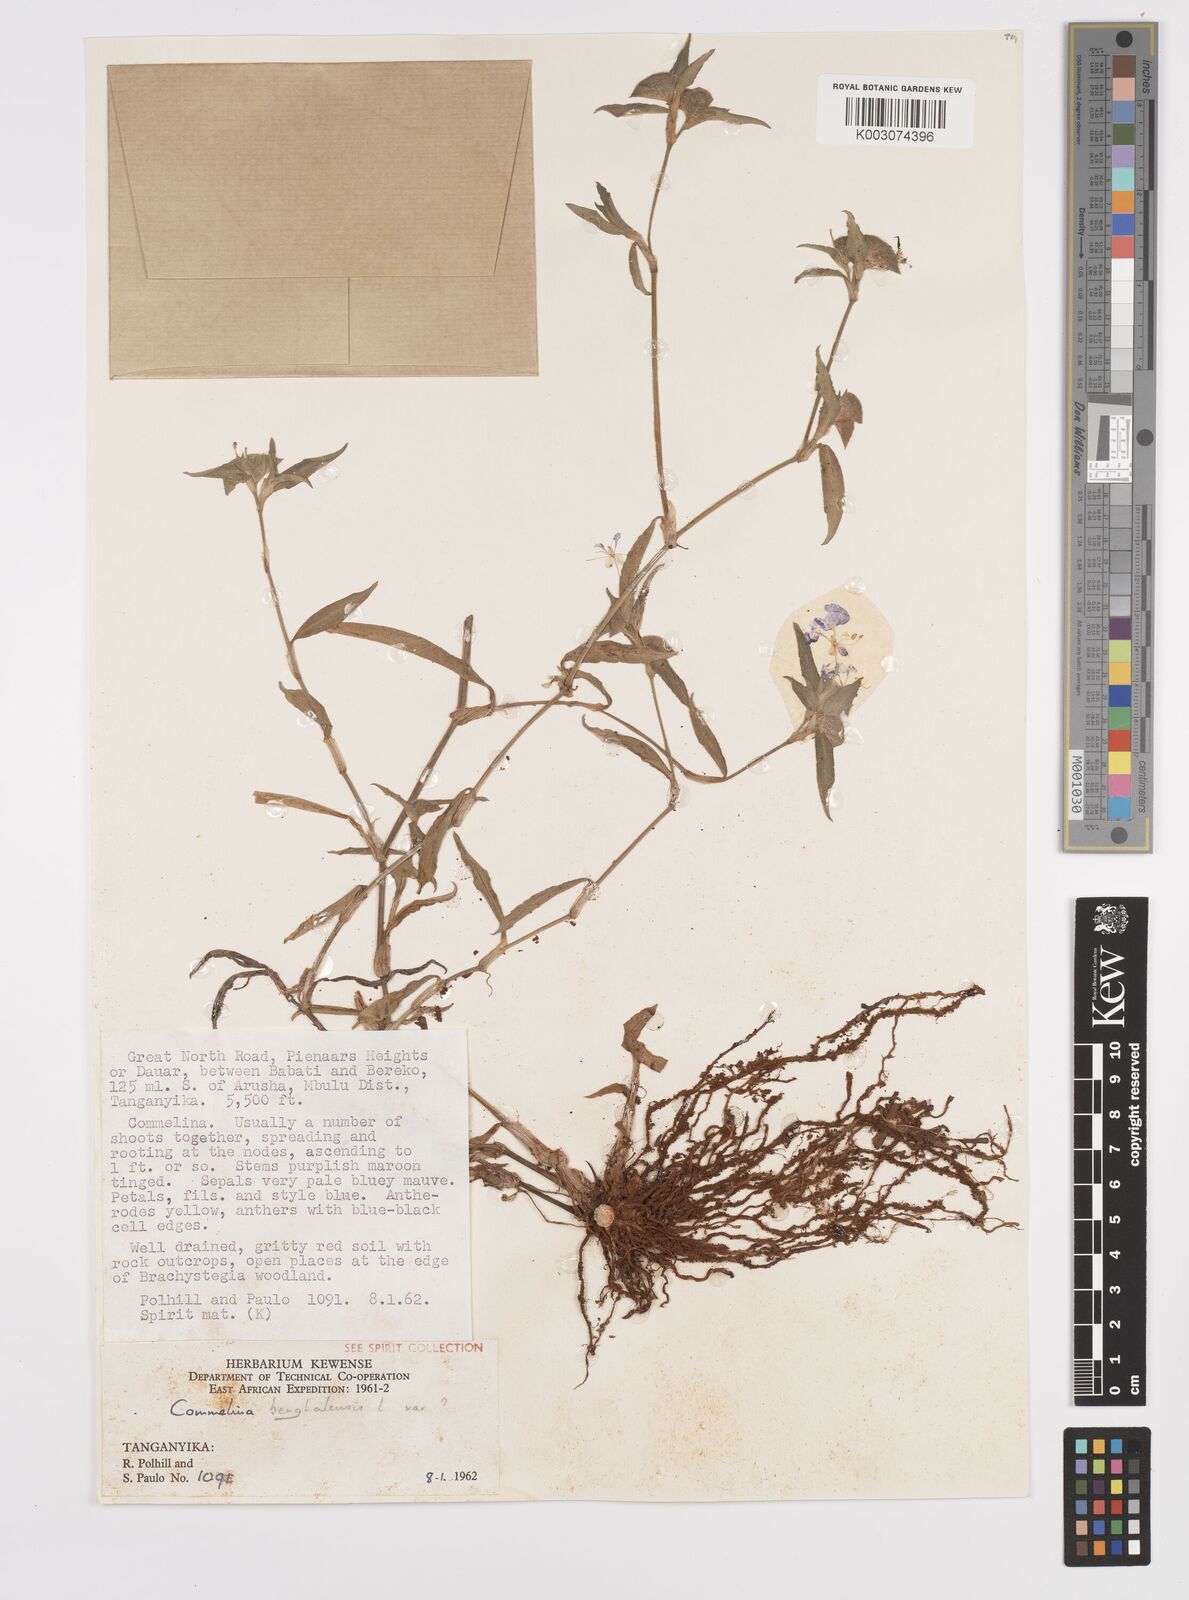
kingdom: Plantae
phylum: Tracheophyta
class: Liliopsida
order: Commelinales
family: Commelinaceae
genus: Commelina
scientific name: Commelina benghalensis
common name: Jio
